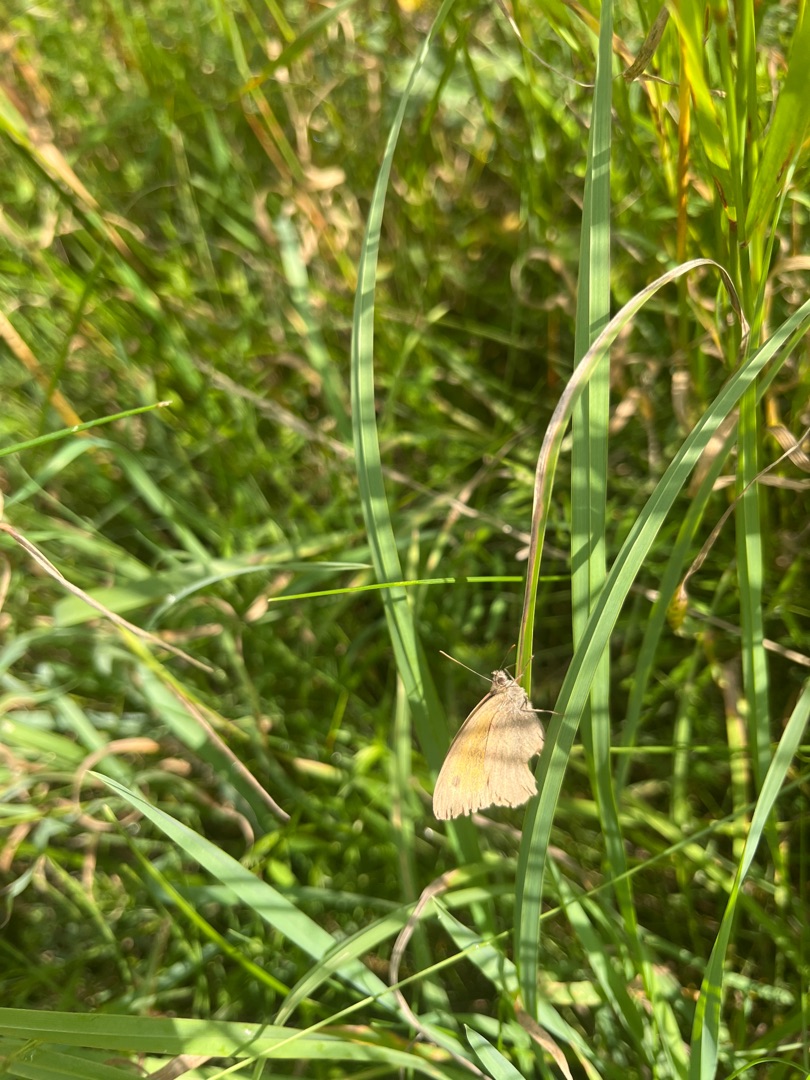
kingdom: Animalia
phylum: Arthropoda
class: Insecta
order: Lepidoptera
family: Nymphalidae
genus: Maniola
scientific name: Maniola jurtina
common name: Græsrandøje
